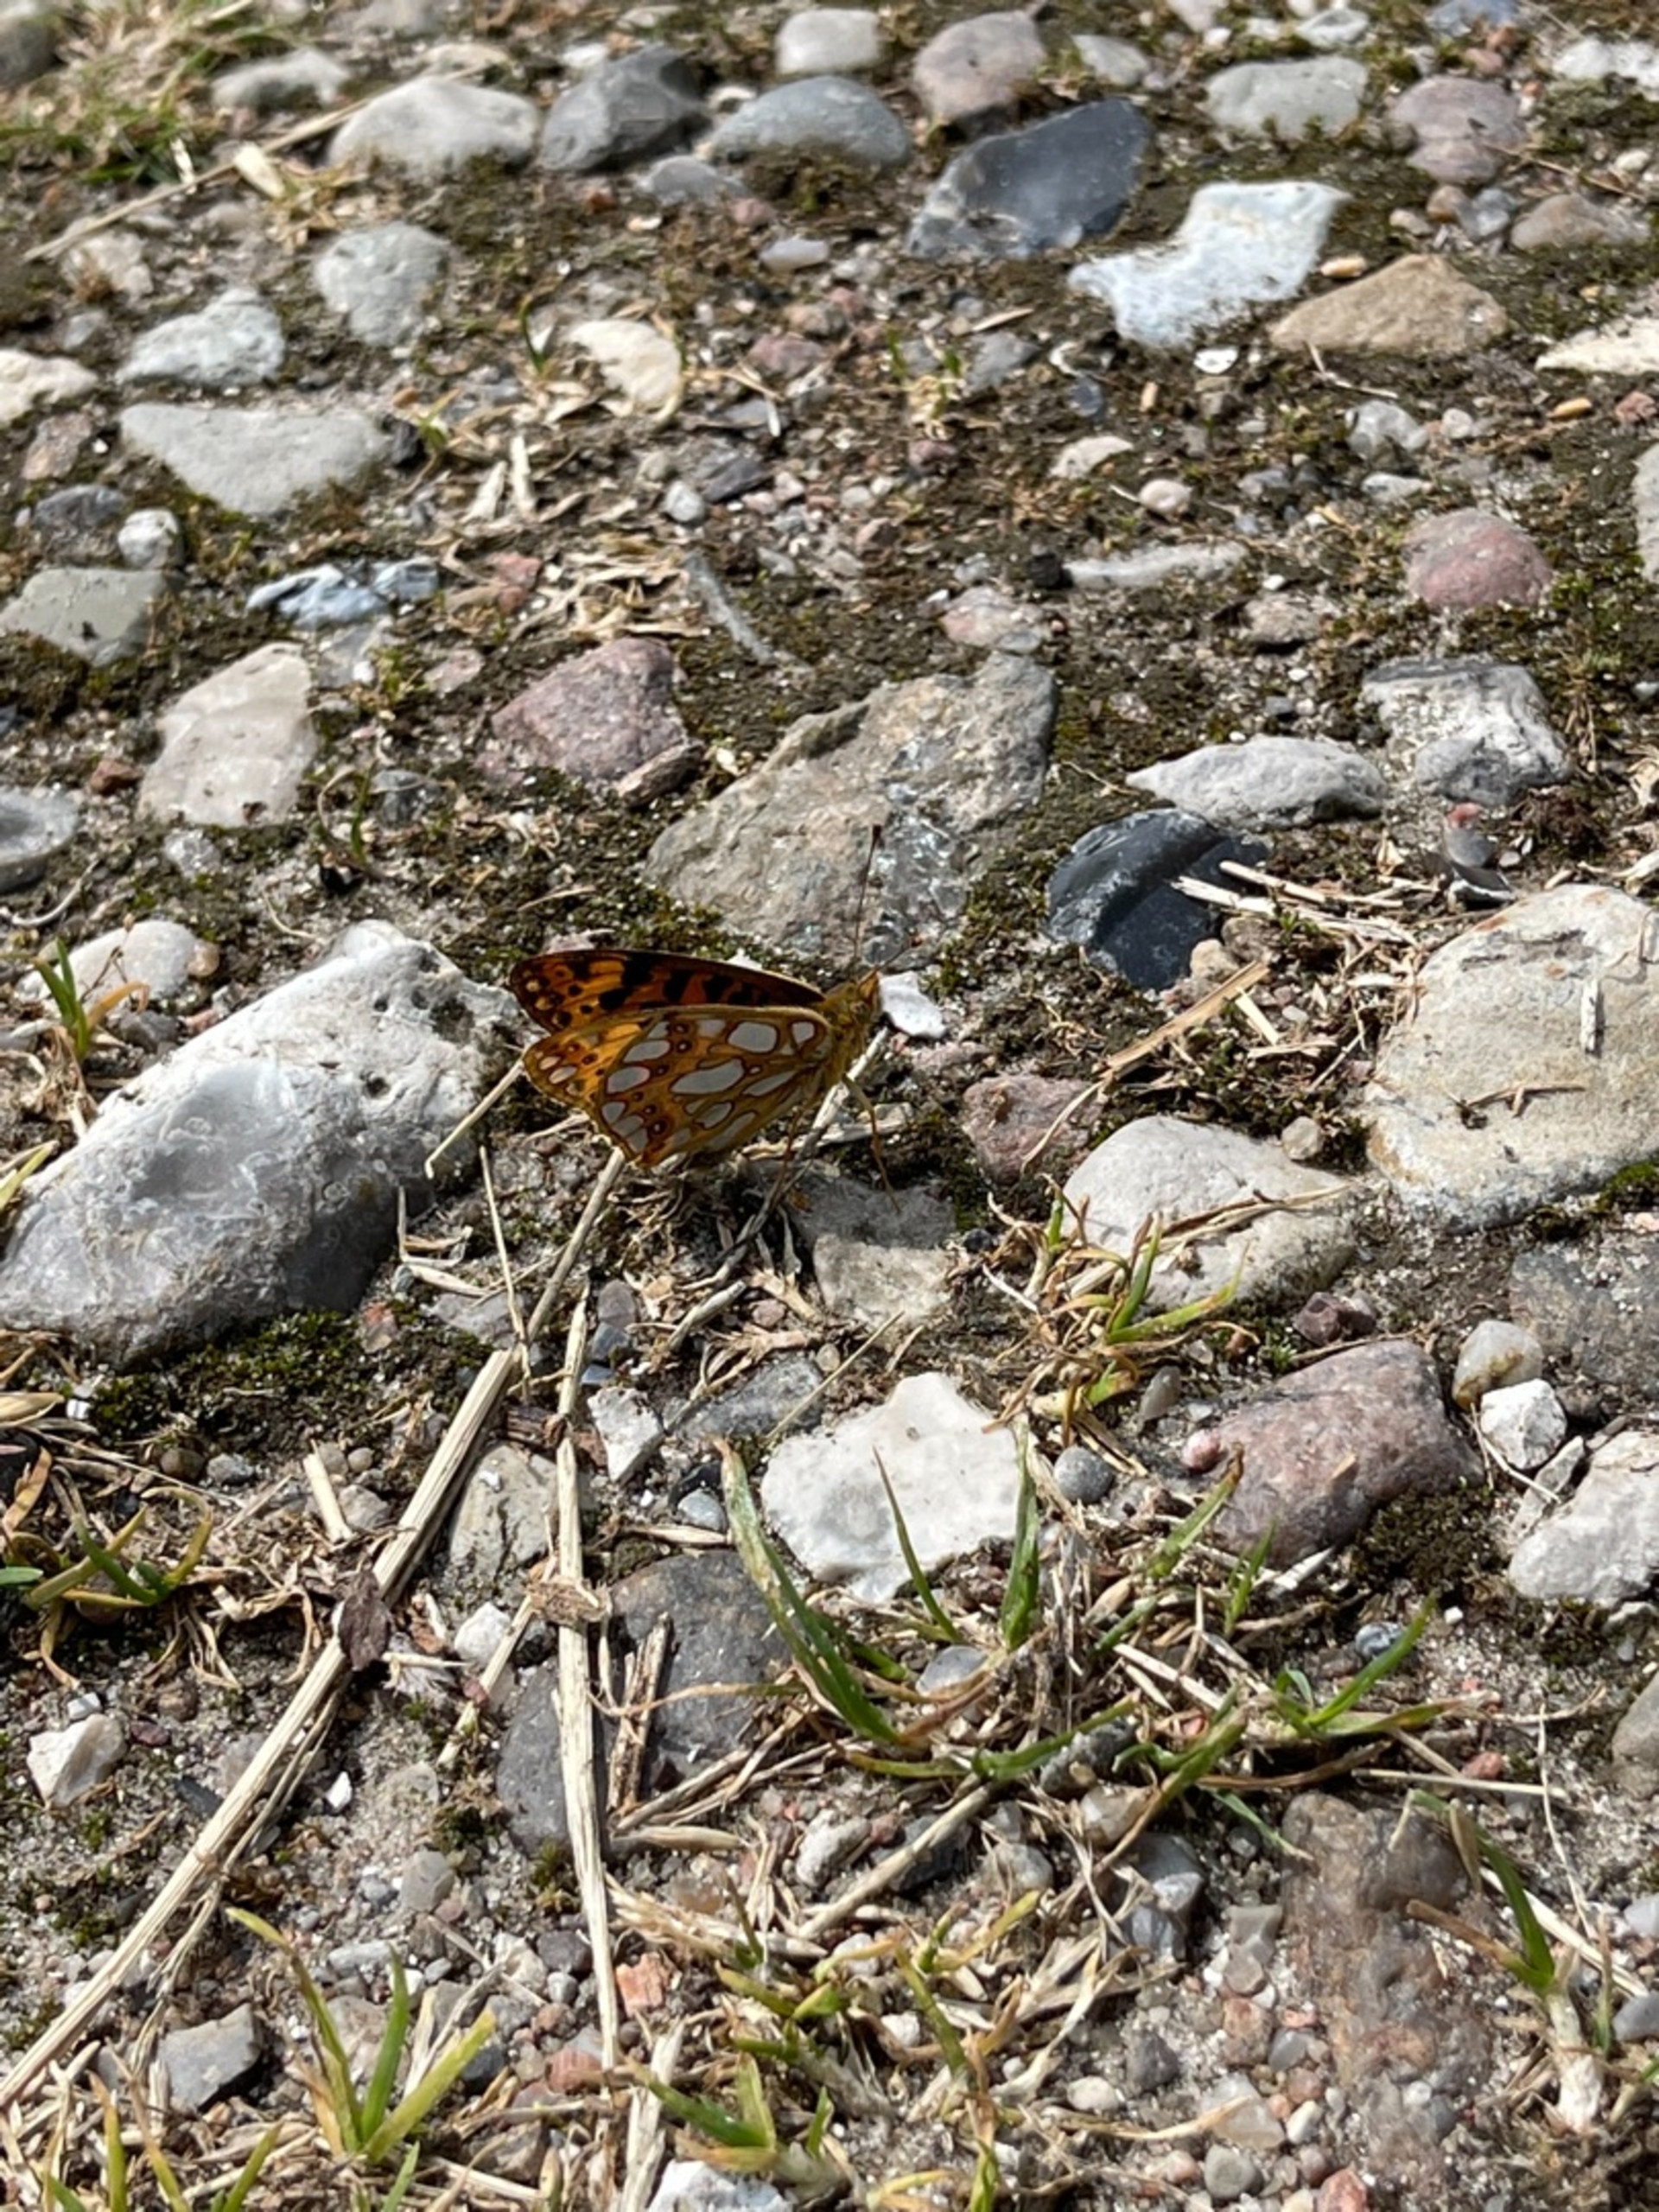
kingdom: Animalia
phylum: Arthropoda
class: Insecta
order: Lepidoptera
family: Nymphalidae
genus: Issoria
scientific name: Issoria lathonia
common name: Storplettet perlemorsommerfugl
